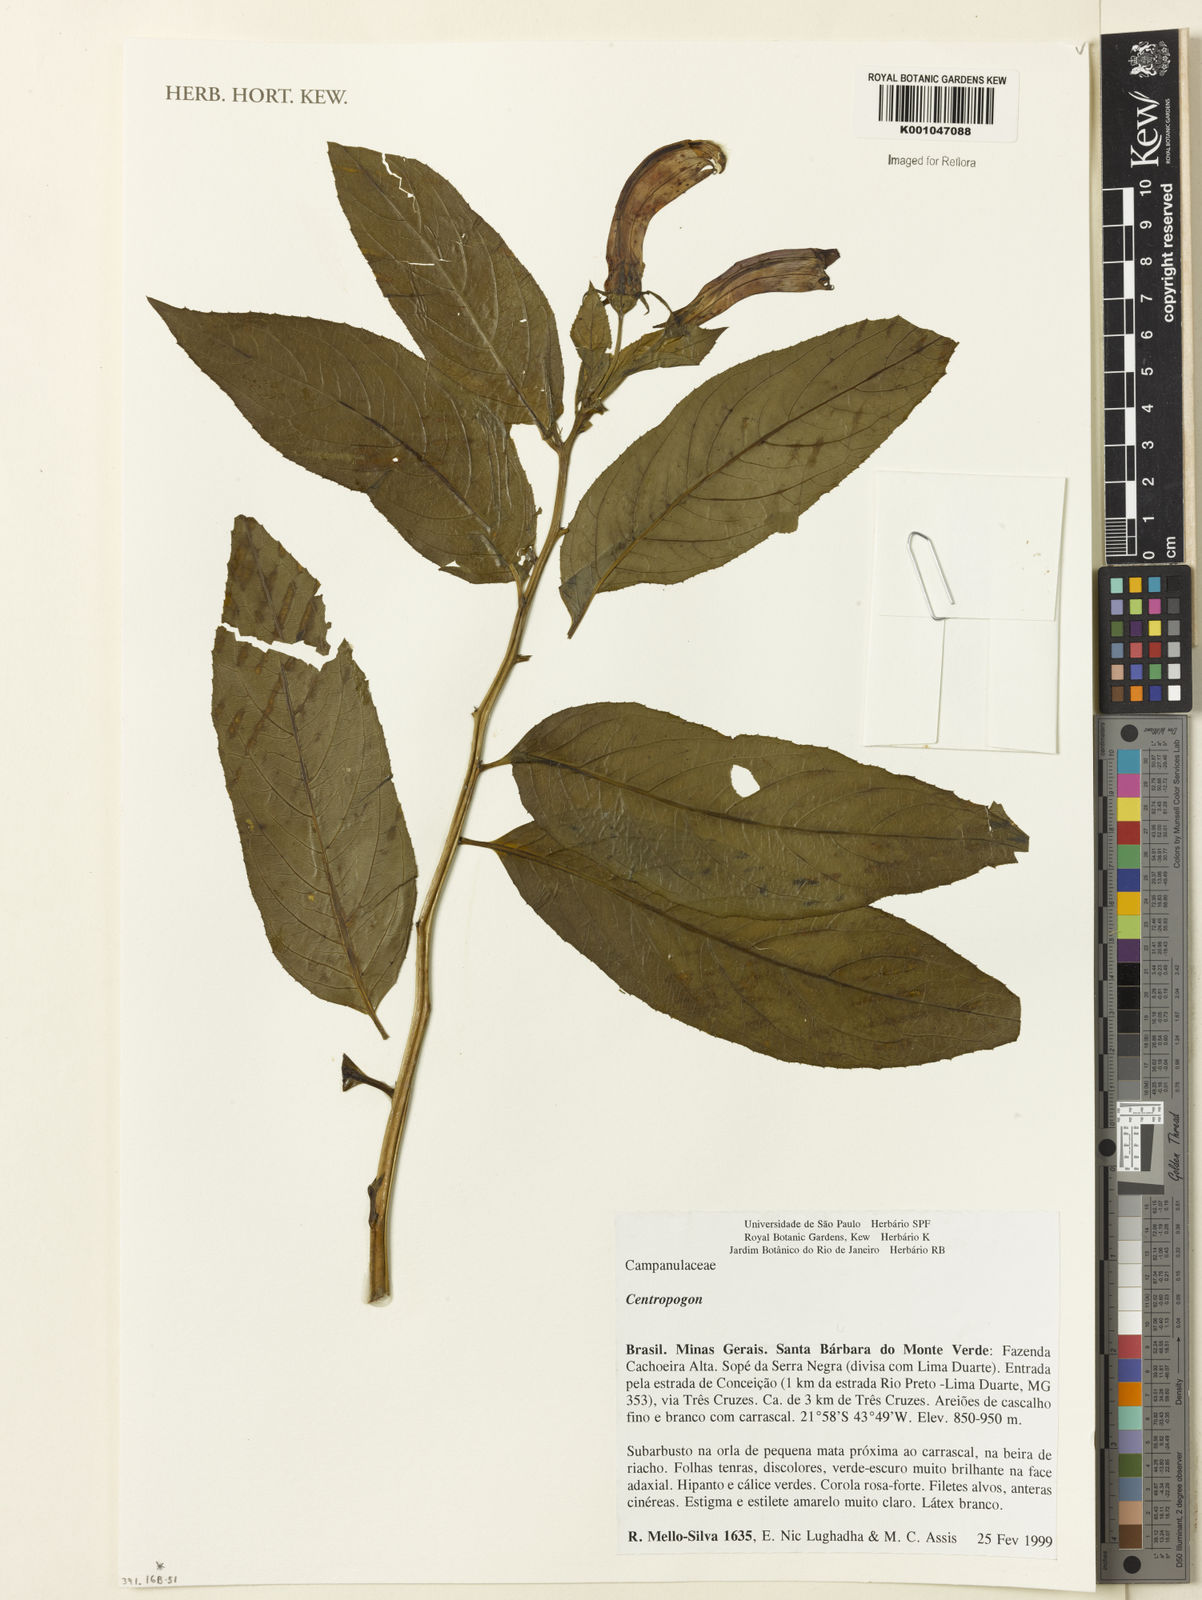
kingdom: Plantae
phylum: Tracheophyta
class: Magnoliopsida
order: Asterales
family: Campanulaceae
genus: Centropogon
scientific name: Centropogon
